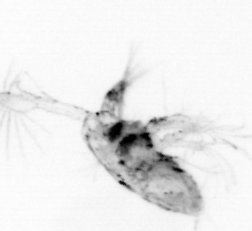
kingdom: Animalia
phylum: Arthropoda
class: Copepoda
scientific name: Copepoda
